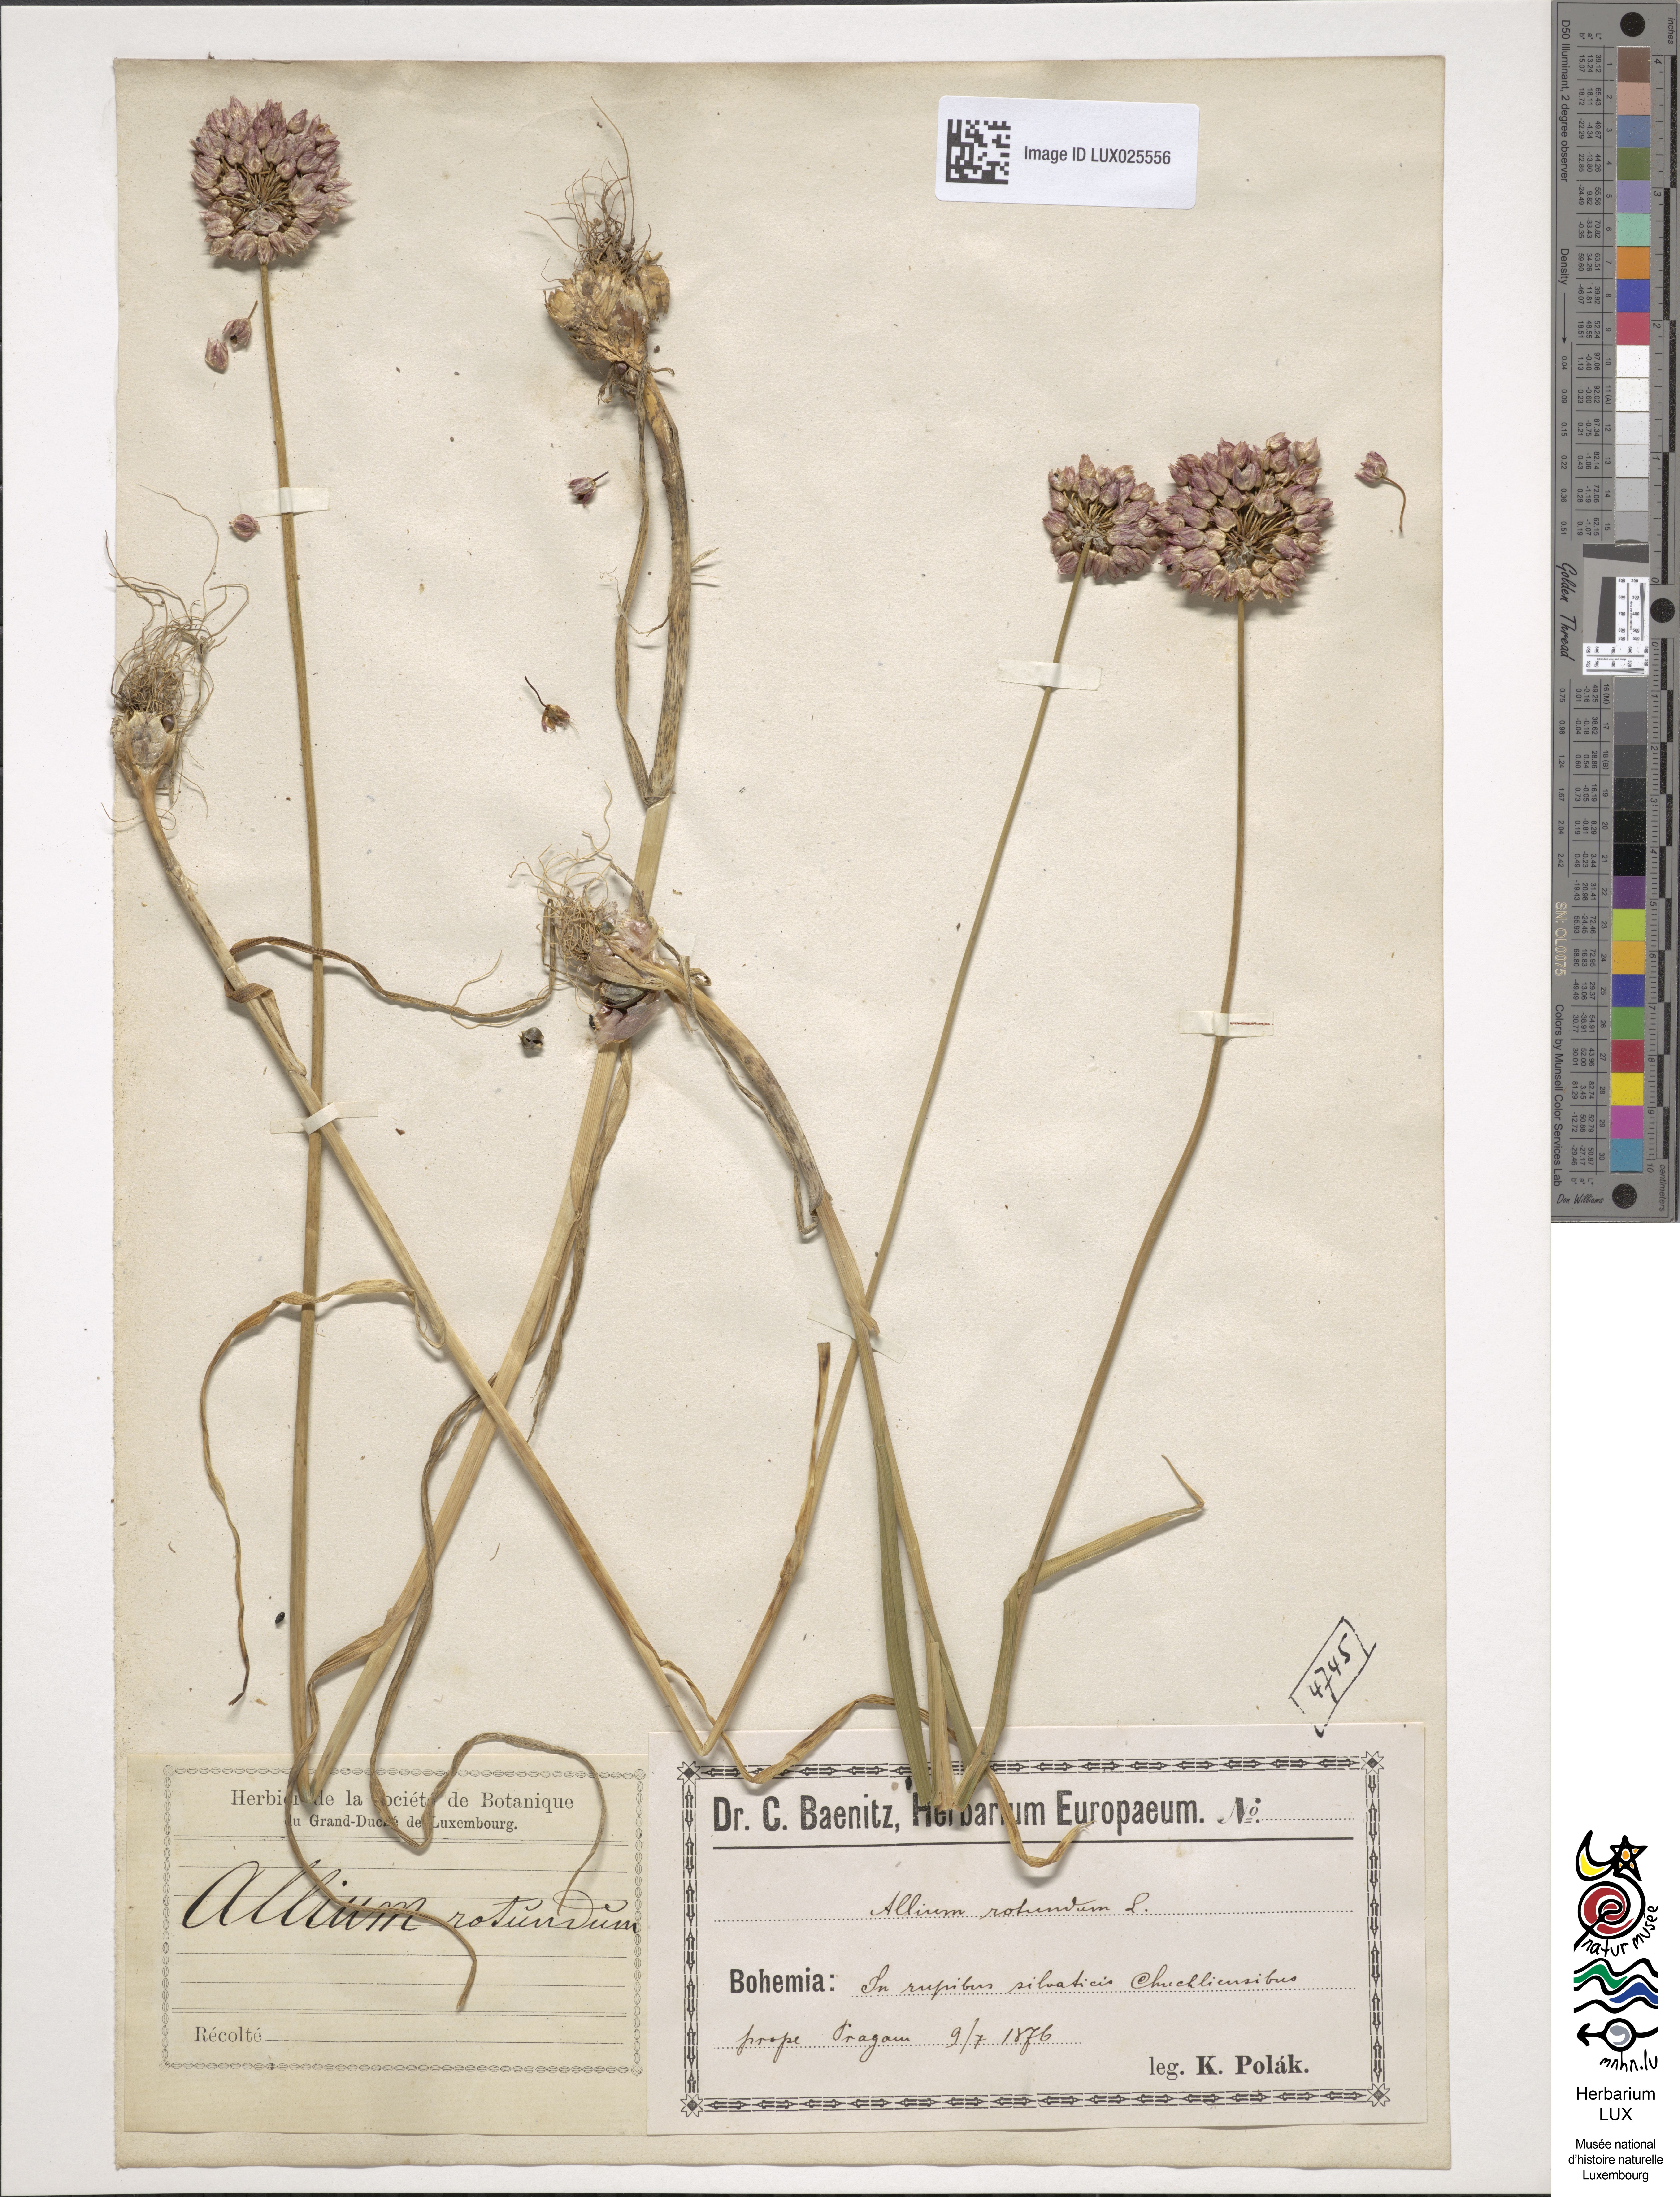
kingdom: Plantae
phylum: Tracheophyta
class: Liliopsida
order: Asparagales
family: Amaryllidaceae
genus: Allium
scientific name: Allium rotundum
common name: Sand leek
